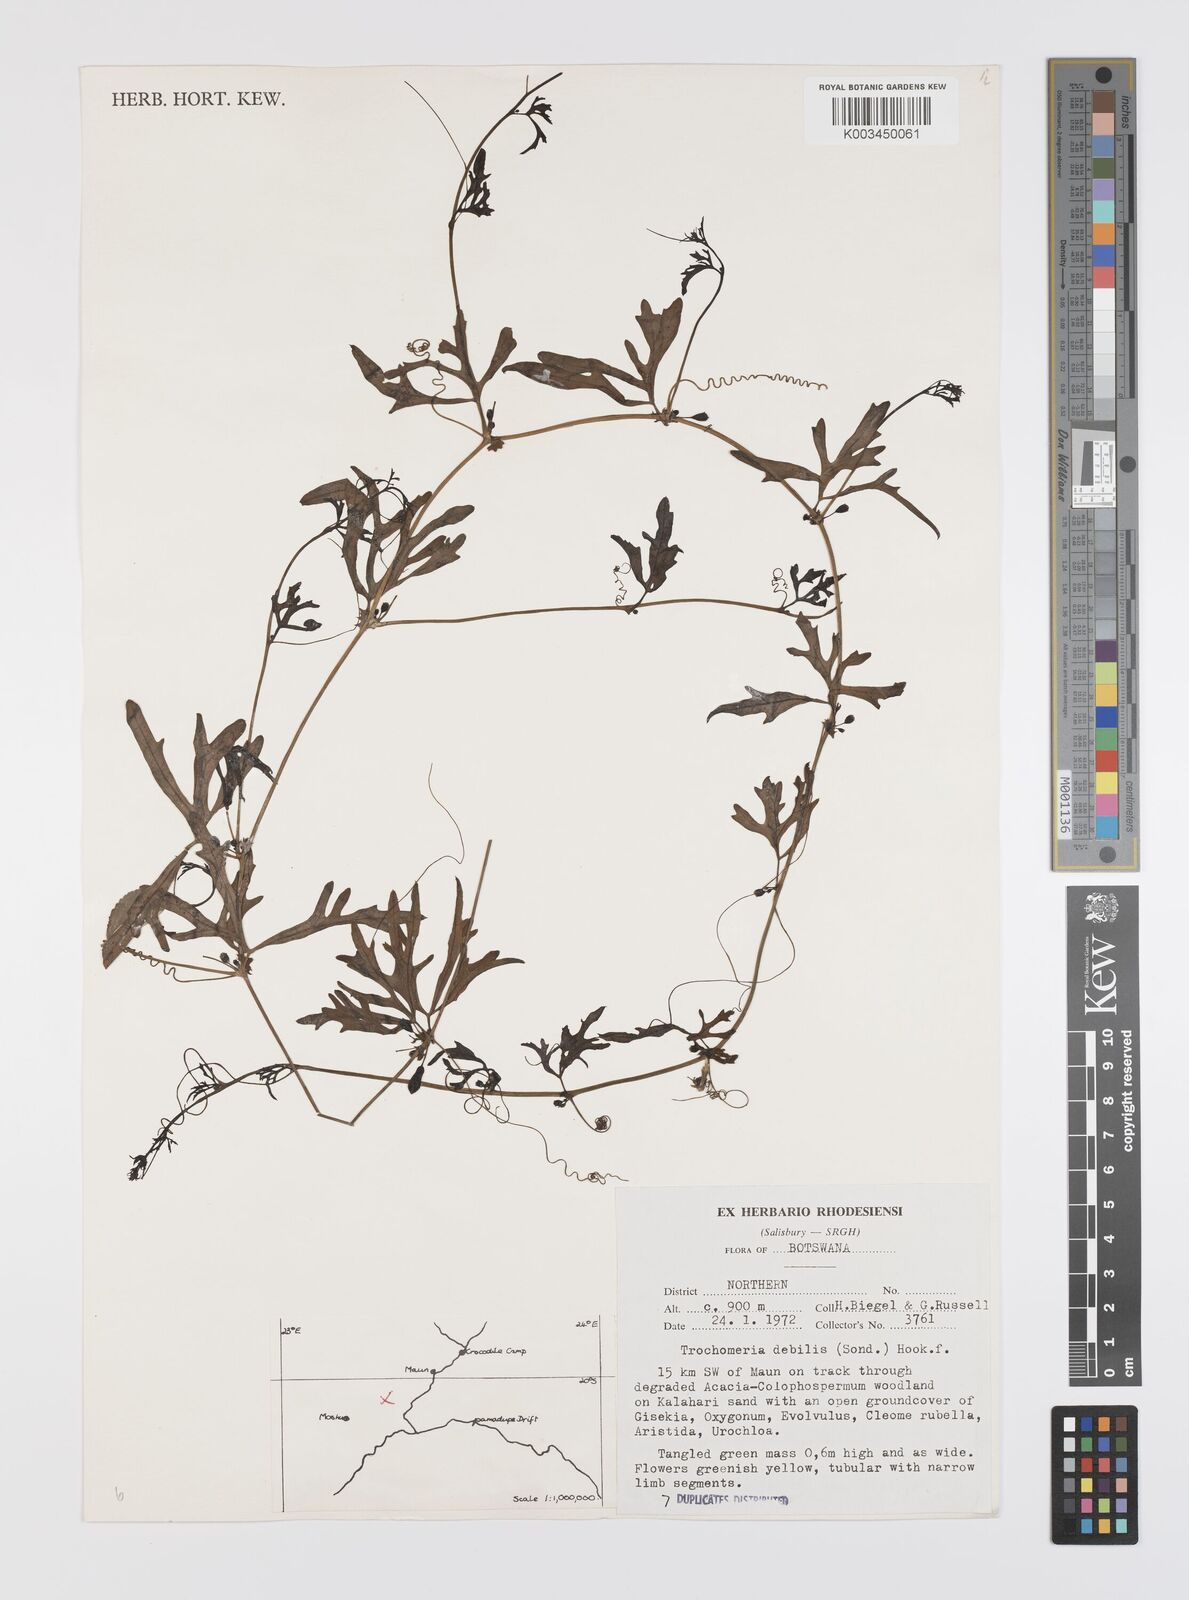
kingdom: Plantae
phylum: Tracheophyta
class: Magnoliopsida
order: Cucurbitales
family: Cucurbitaceae
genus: Trochomeria
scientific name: Trochomeria debilis
